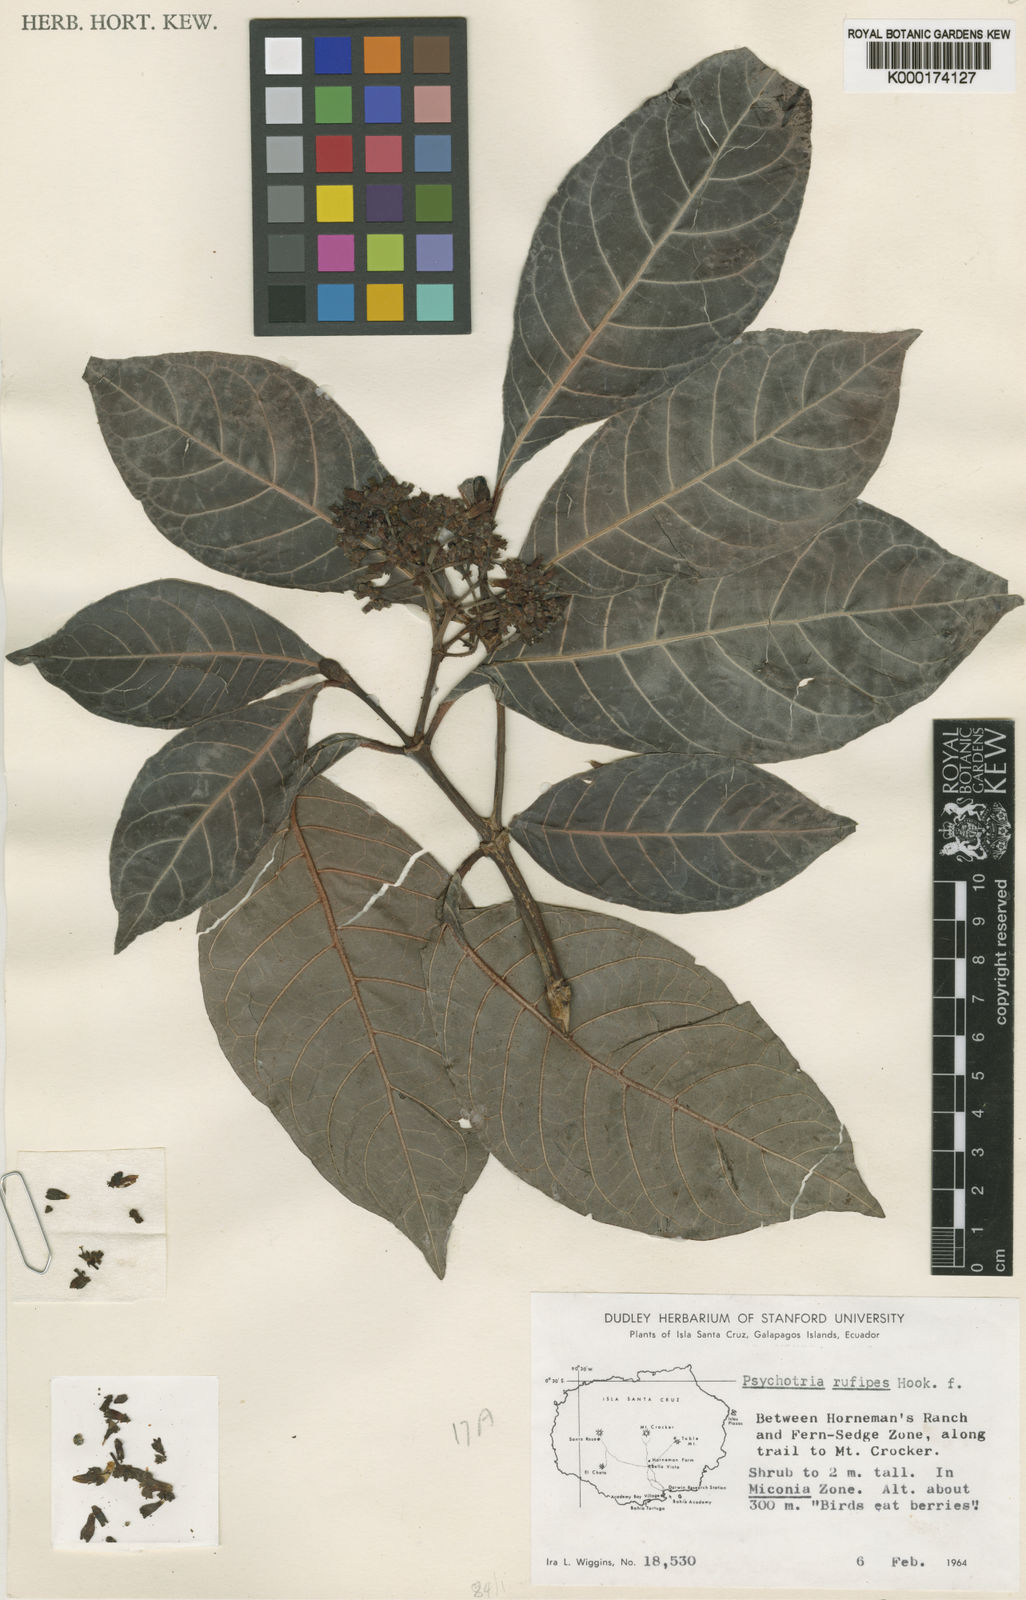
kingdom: Plantae
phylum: Tracheophyta
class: Magnoliopsida
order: Gentianales
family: Rubiaceae
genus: Psychotria
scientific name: Psychotria rufipes
